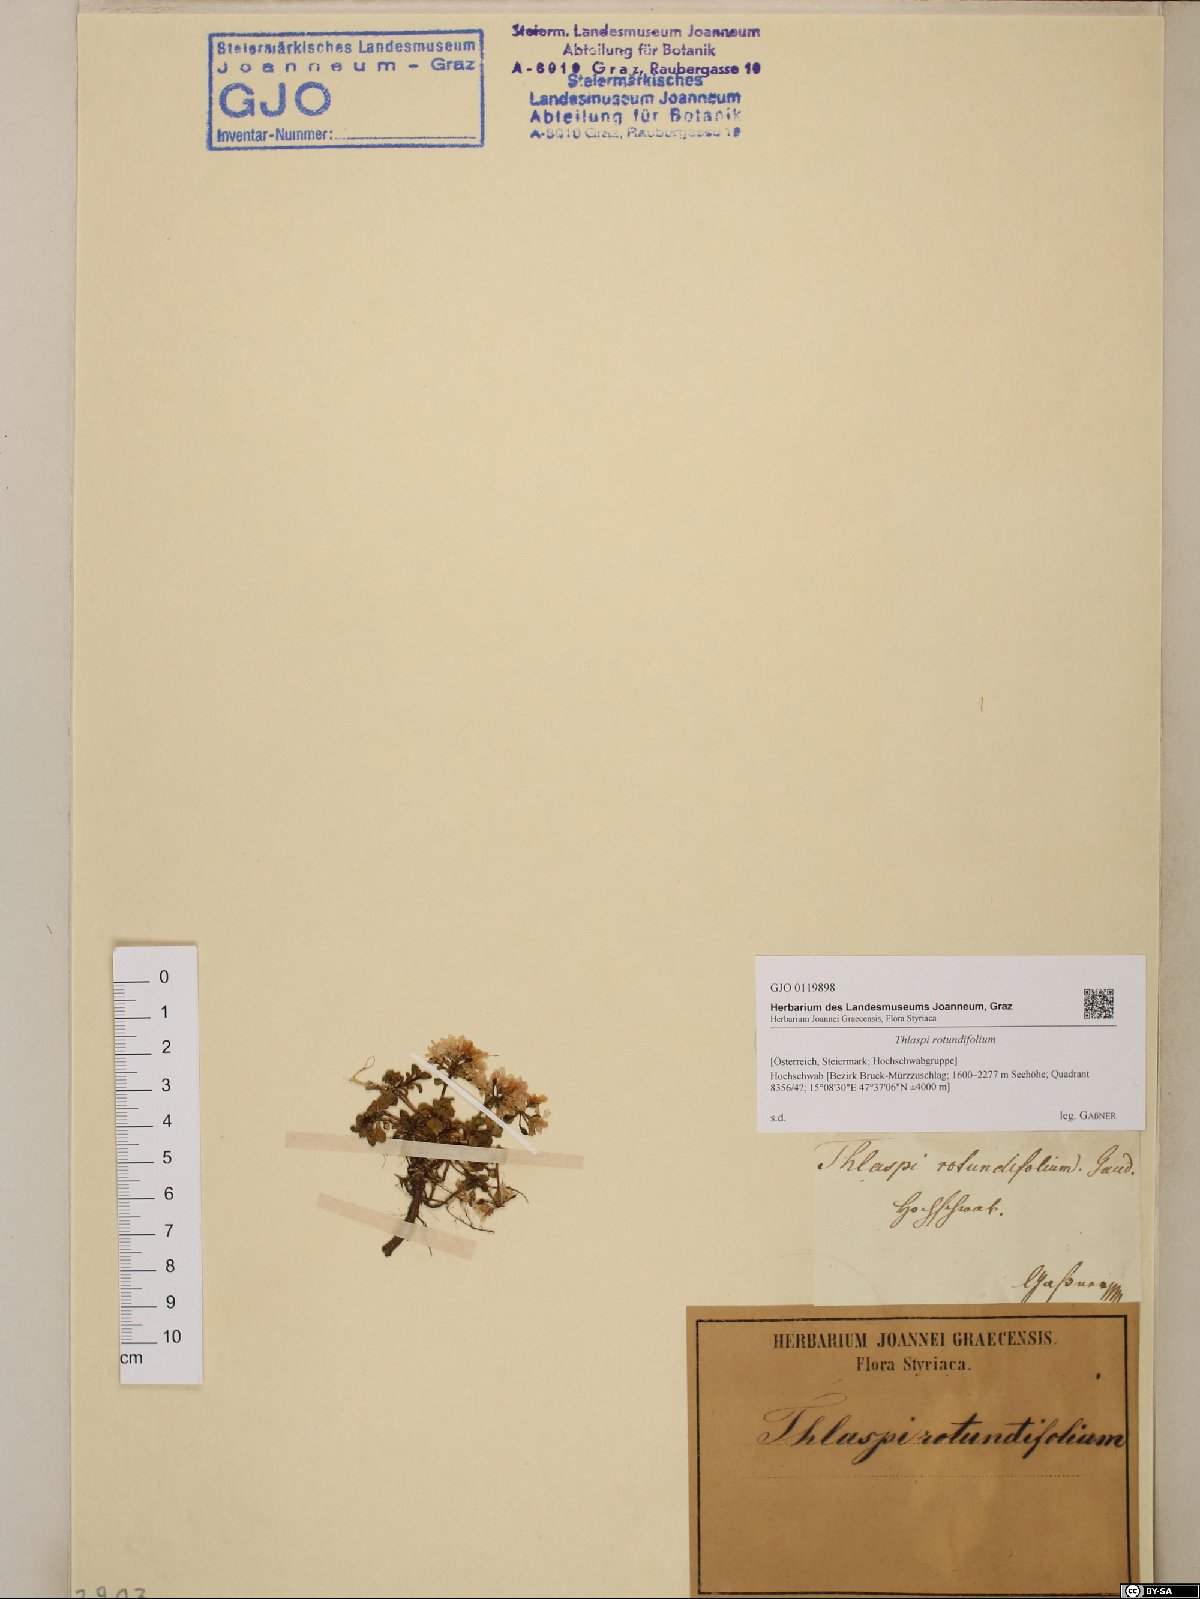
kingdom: Plantae
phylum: Tracheophyta
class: Magnoliopsida
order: Brassicales
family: Brassicaceae
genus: Noccaea
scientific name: Noccaea rotundifolia
